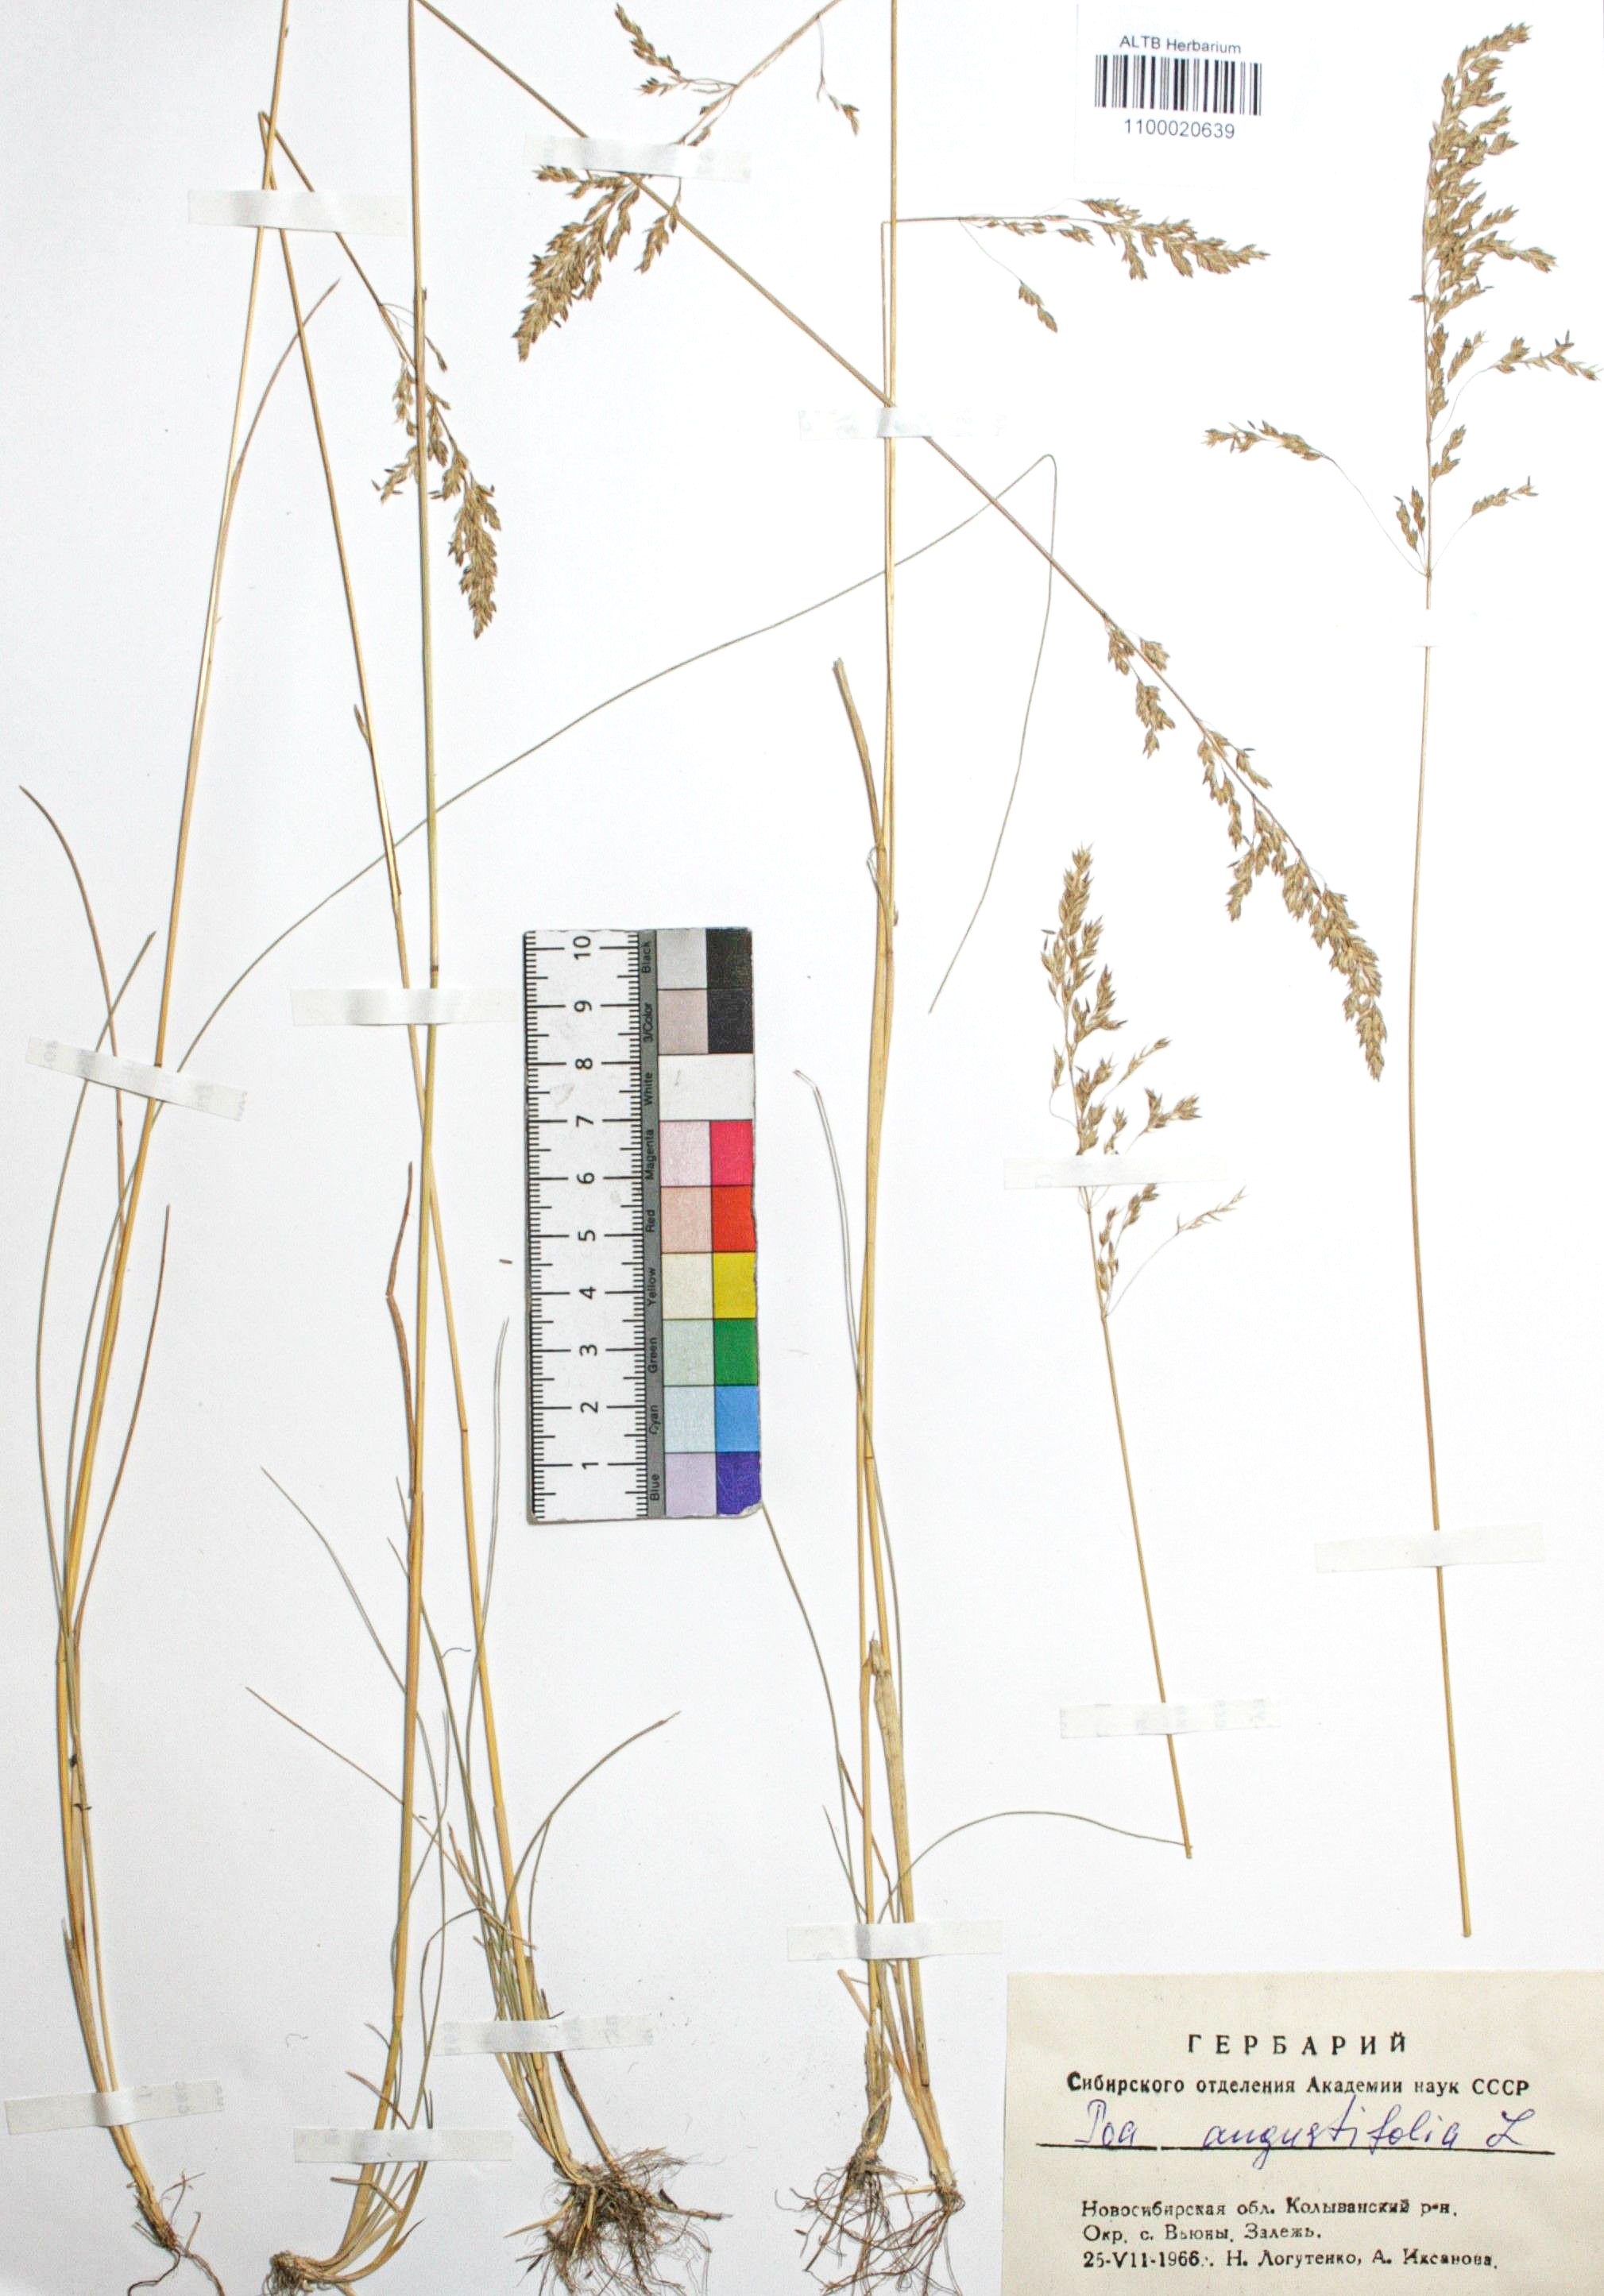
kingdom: Plantae
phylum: Tracheophyta
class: Liliopsida
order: Poales
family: Poaceae
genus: Poa
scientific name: Poa angustifolia
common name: Narrow-leaved meadow-grass
